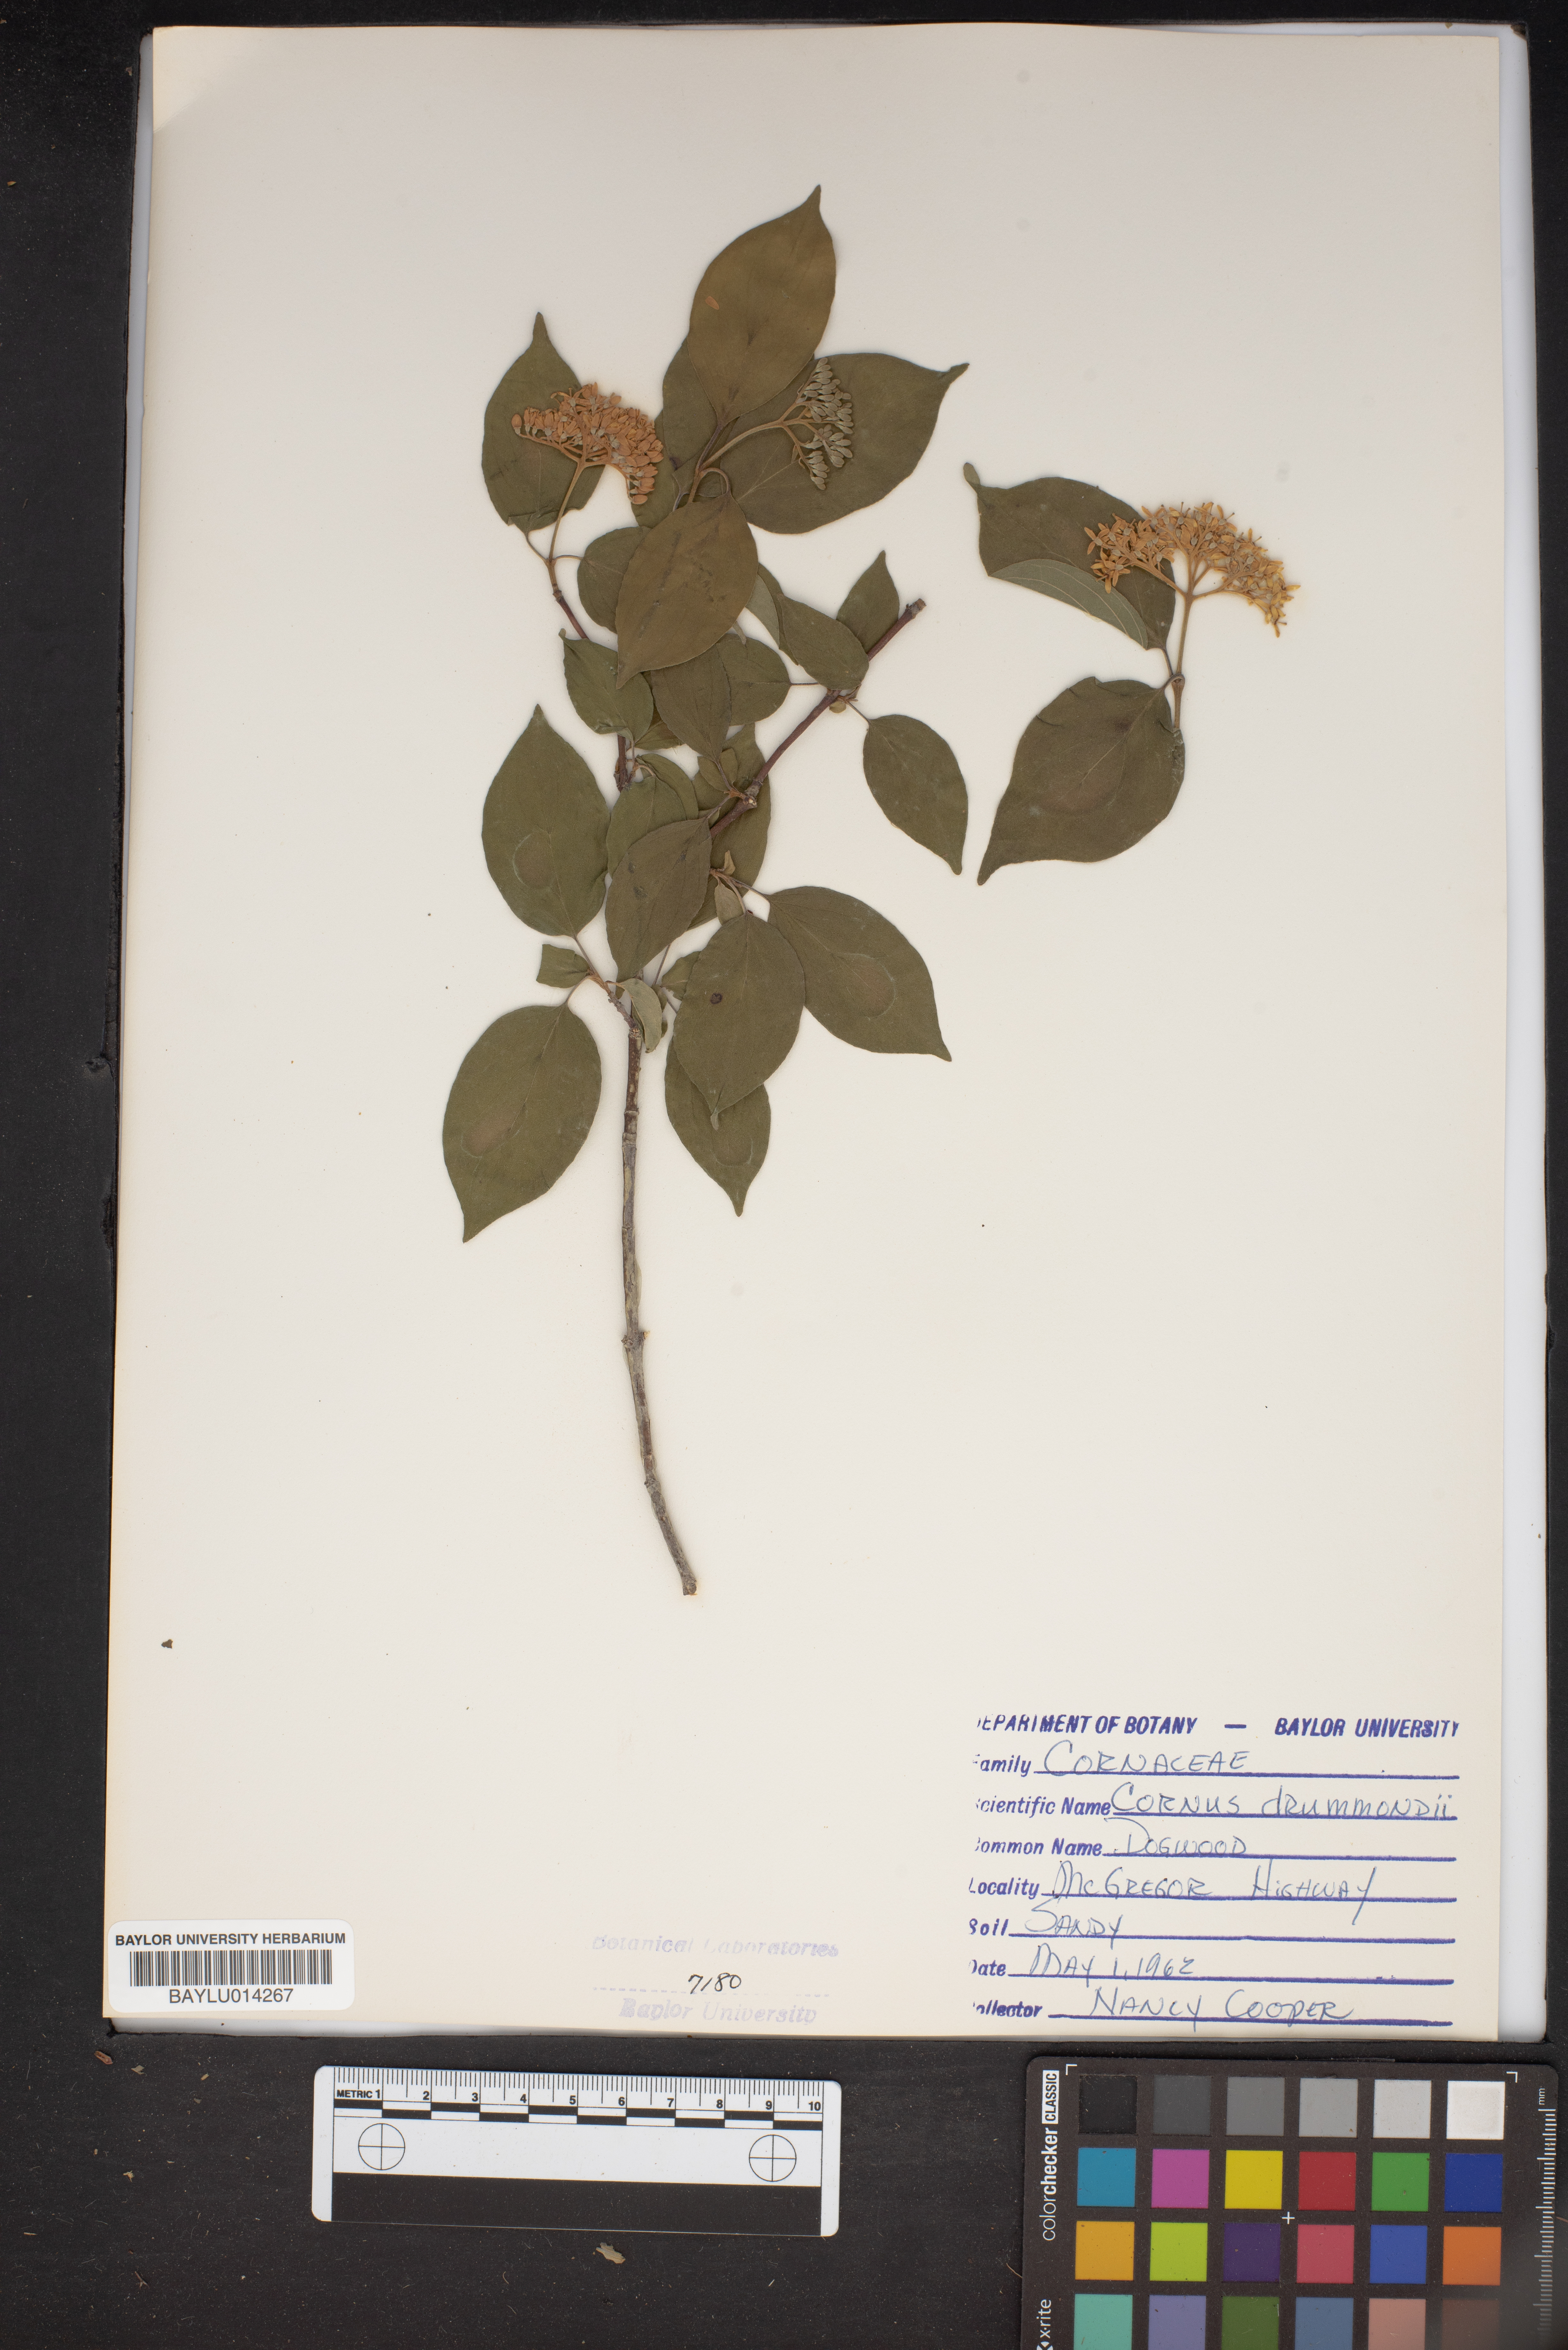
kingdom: Plantae
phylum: Tracheophyta
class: Magnoliopsida
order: Cornales
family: Cornaceae
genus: Cornus
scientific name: Cornus drummondii
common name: Rough-leaf dogwood
